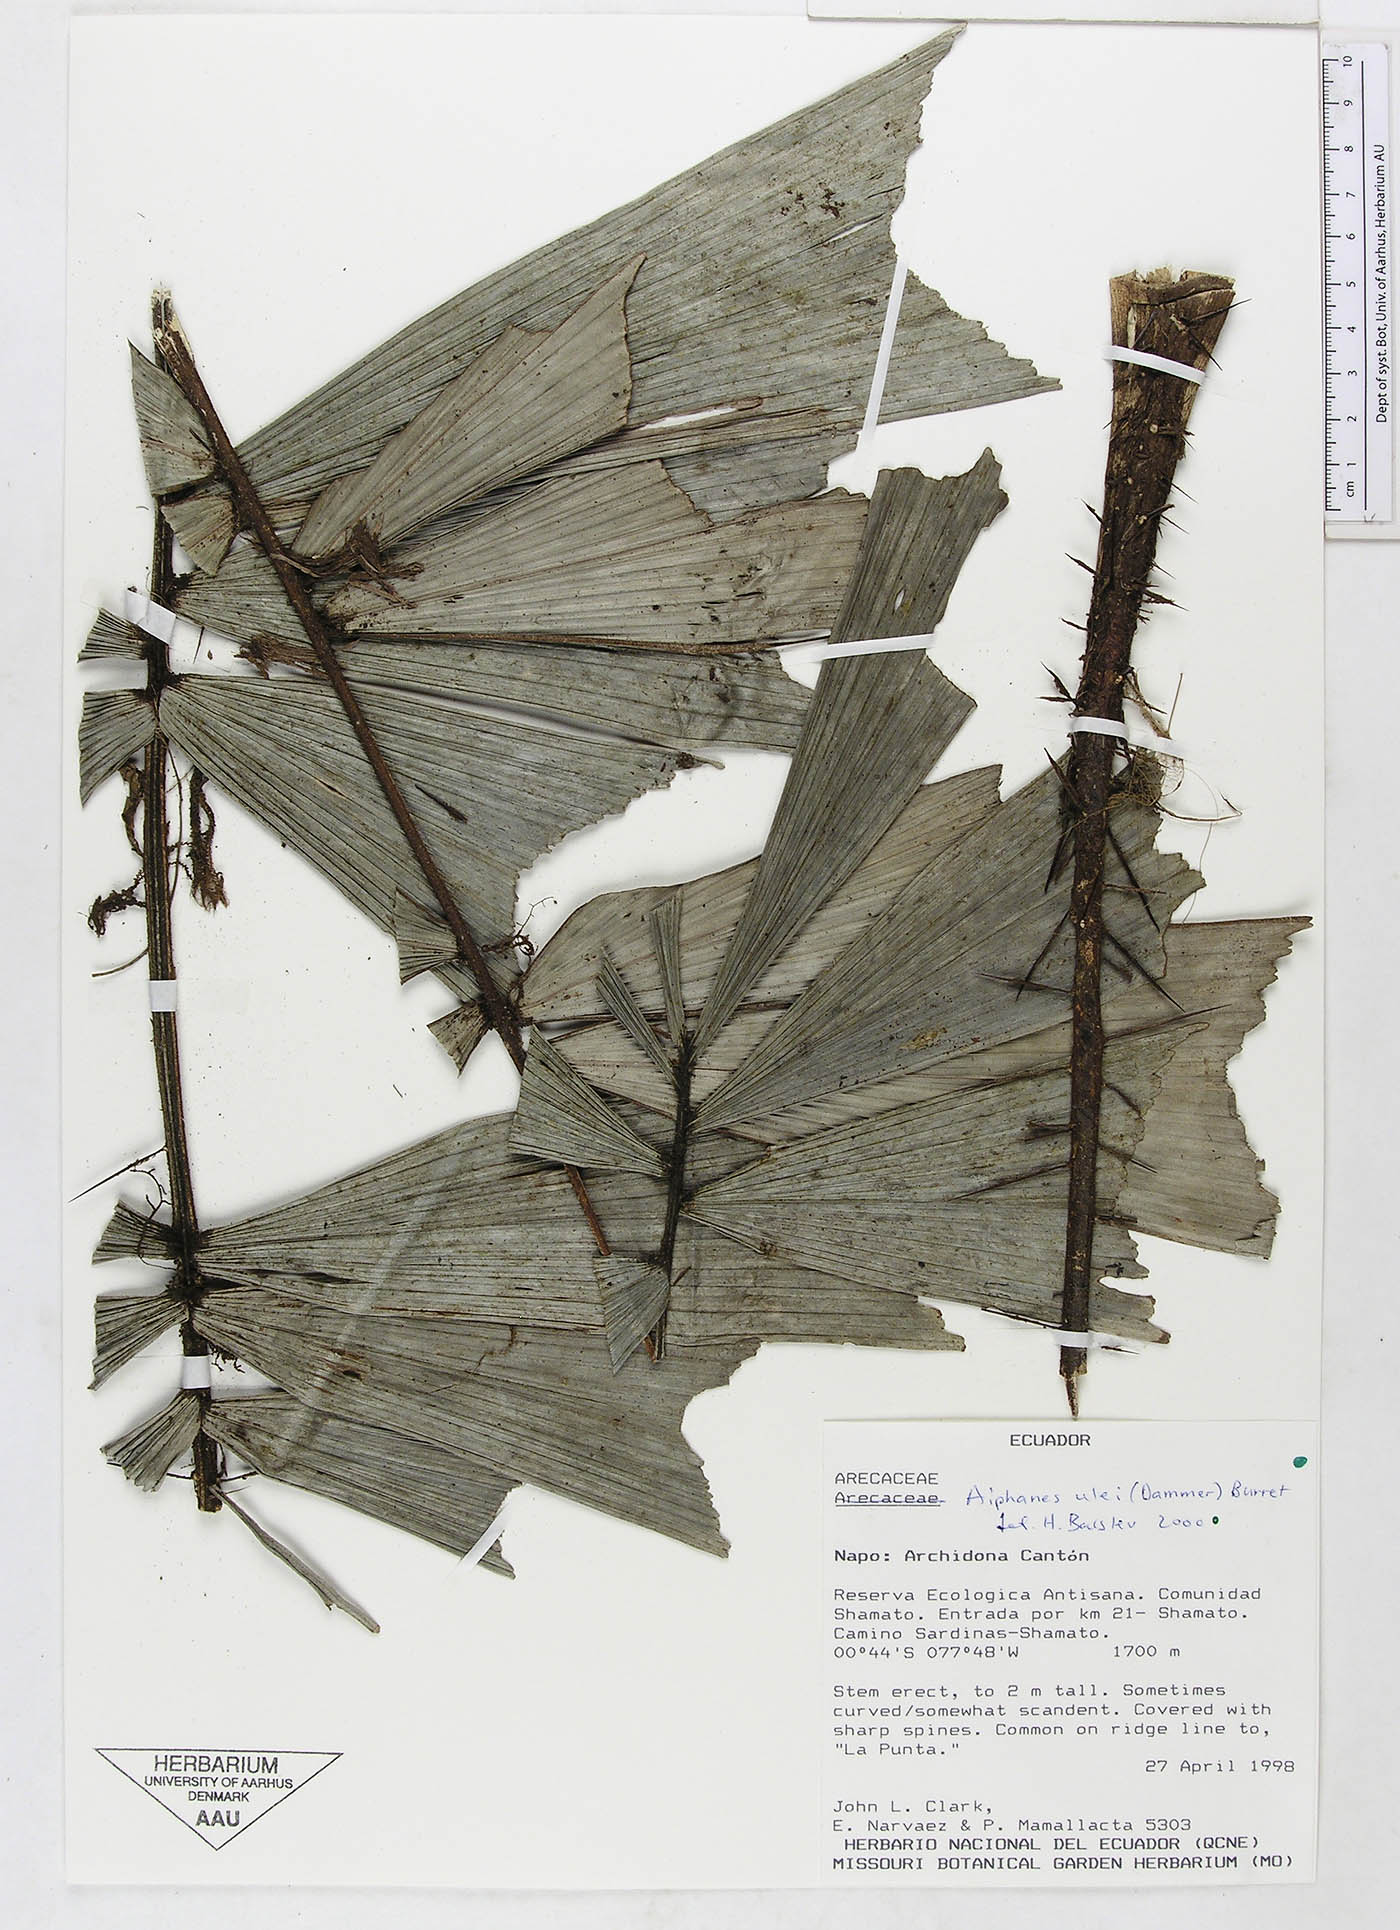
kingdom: Plantae
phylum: Tracheophyta
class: Liliopsida
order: Arecales
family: Arecaceae
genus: Aiphanes
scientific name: Aiphanes ulei
